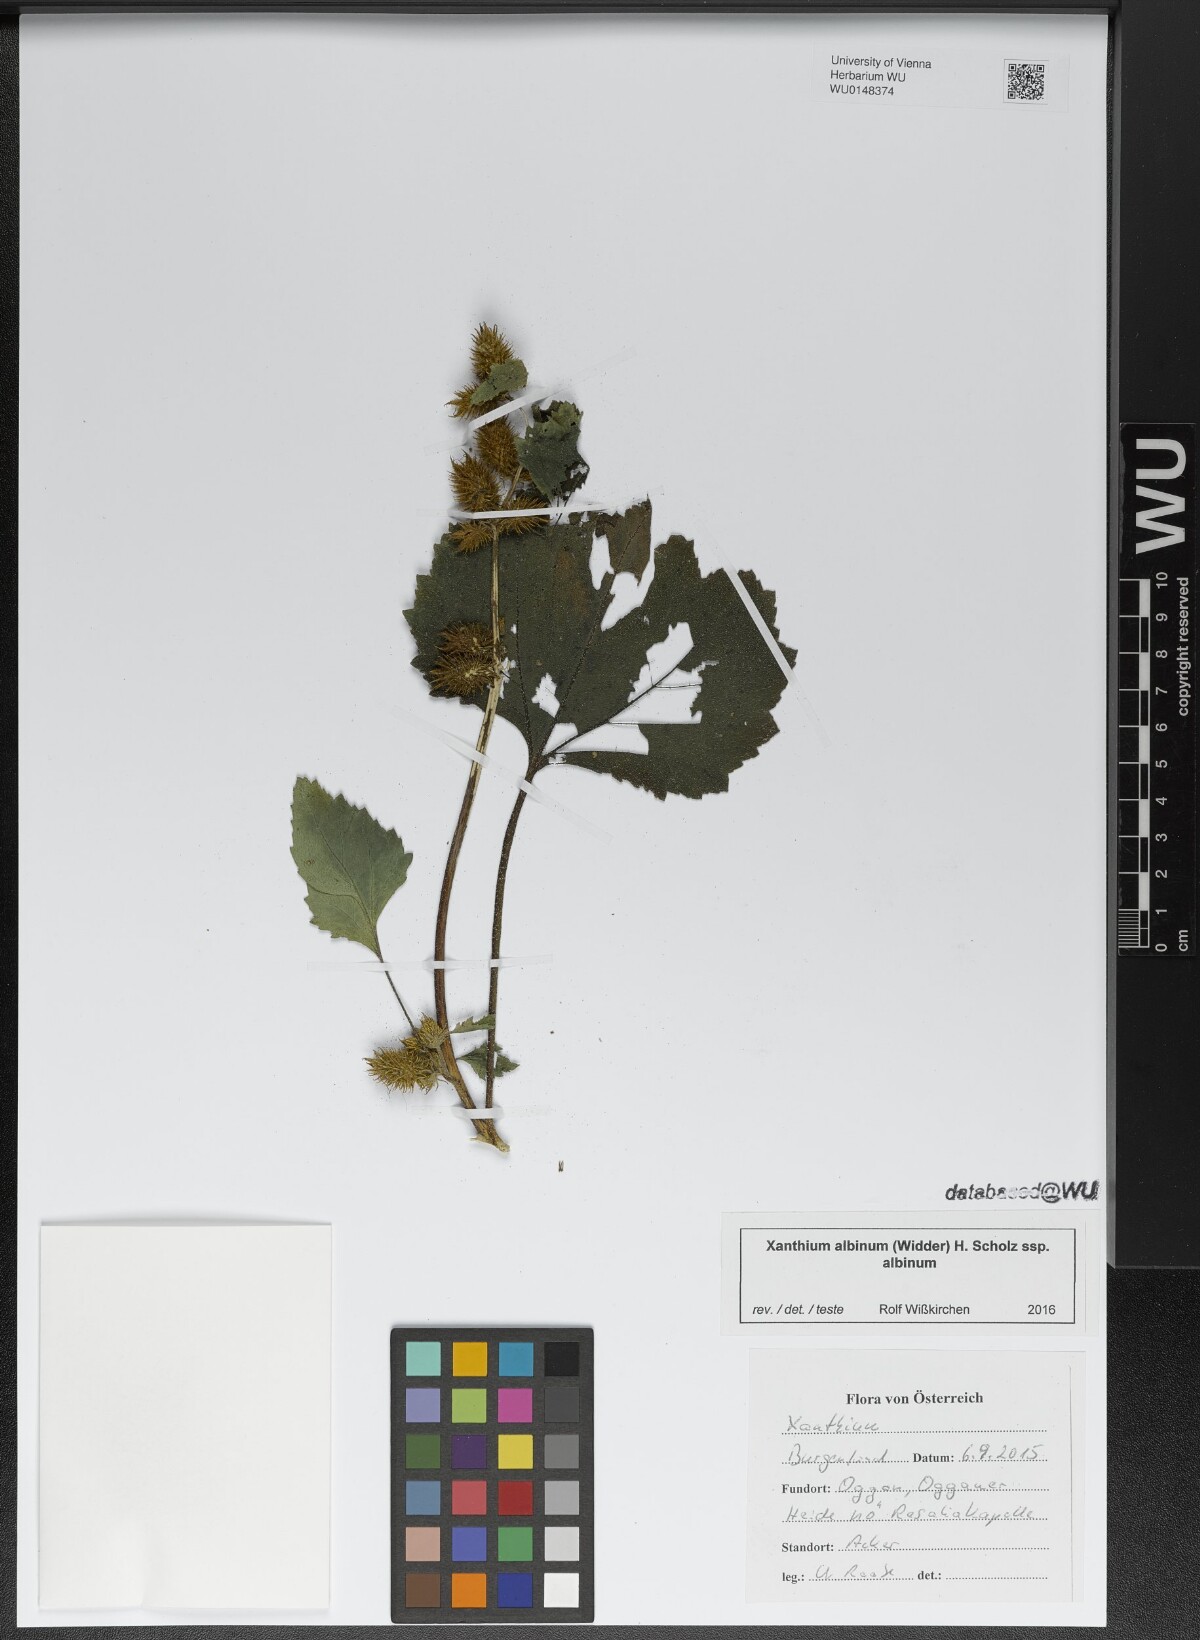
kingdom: Plantae
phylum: Tracheophyta
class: Magnoliopsida
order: Asterales
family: Asteraceae
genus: Xanthium
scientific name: Xanthium orientale
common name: Californian burr
